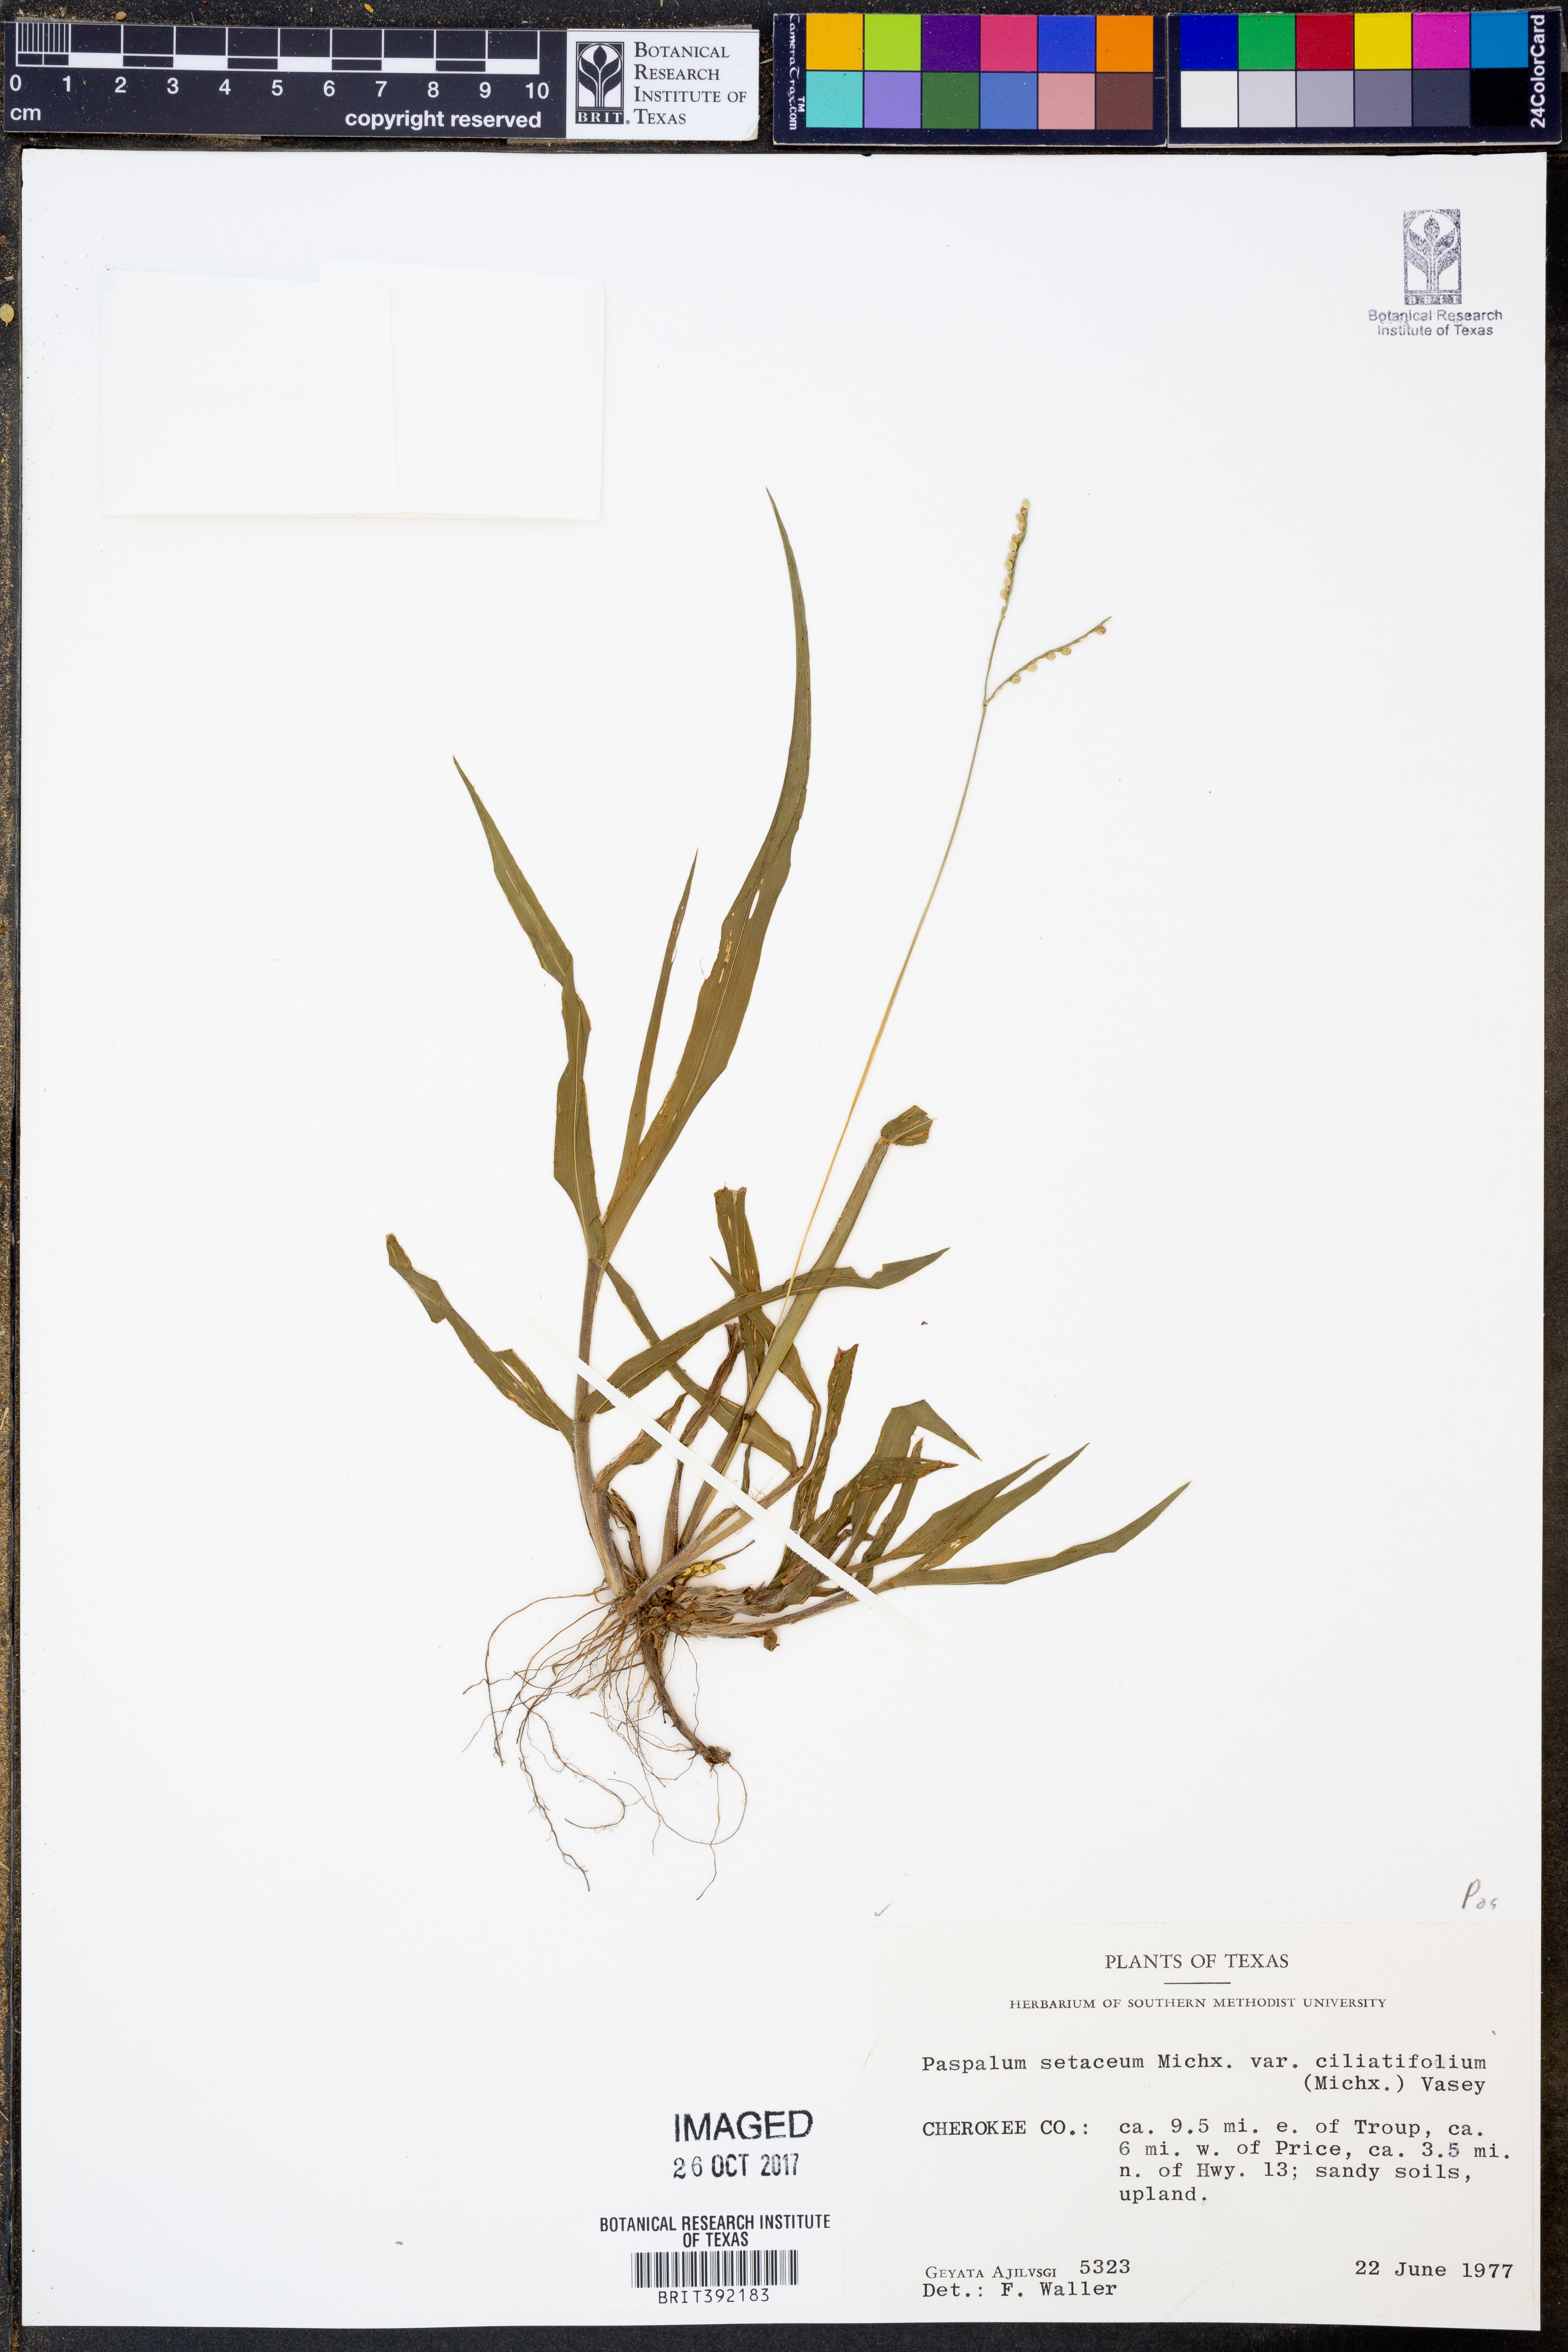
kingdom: Plantae
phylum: Tracheophyta
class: Liliopsida
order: Poales
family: Poaceae
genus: Paspalum
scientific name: Paspalum setaceum
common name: Slender paspalum
